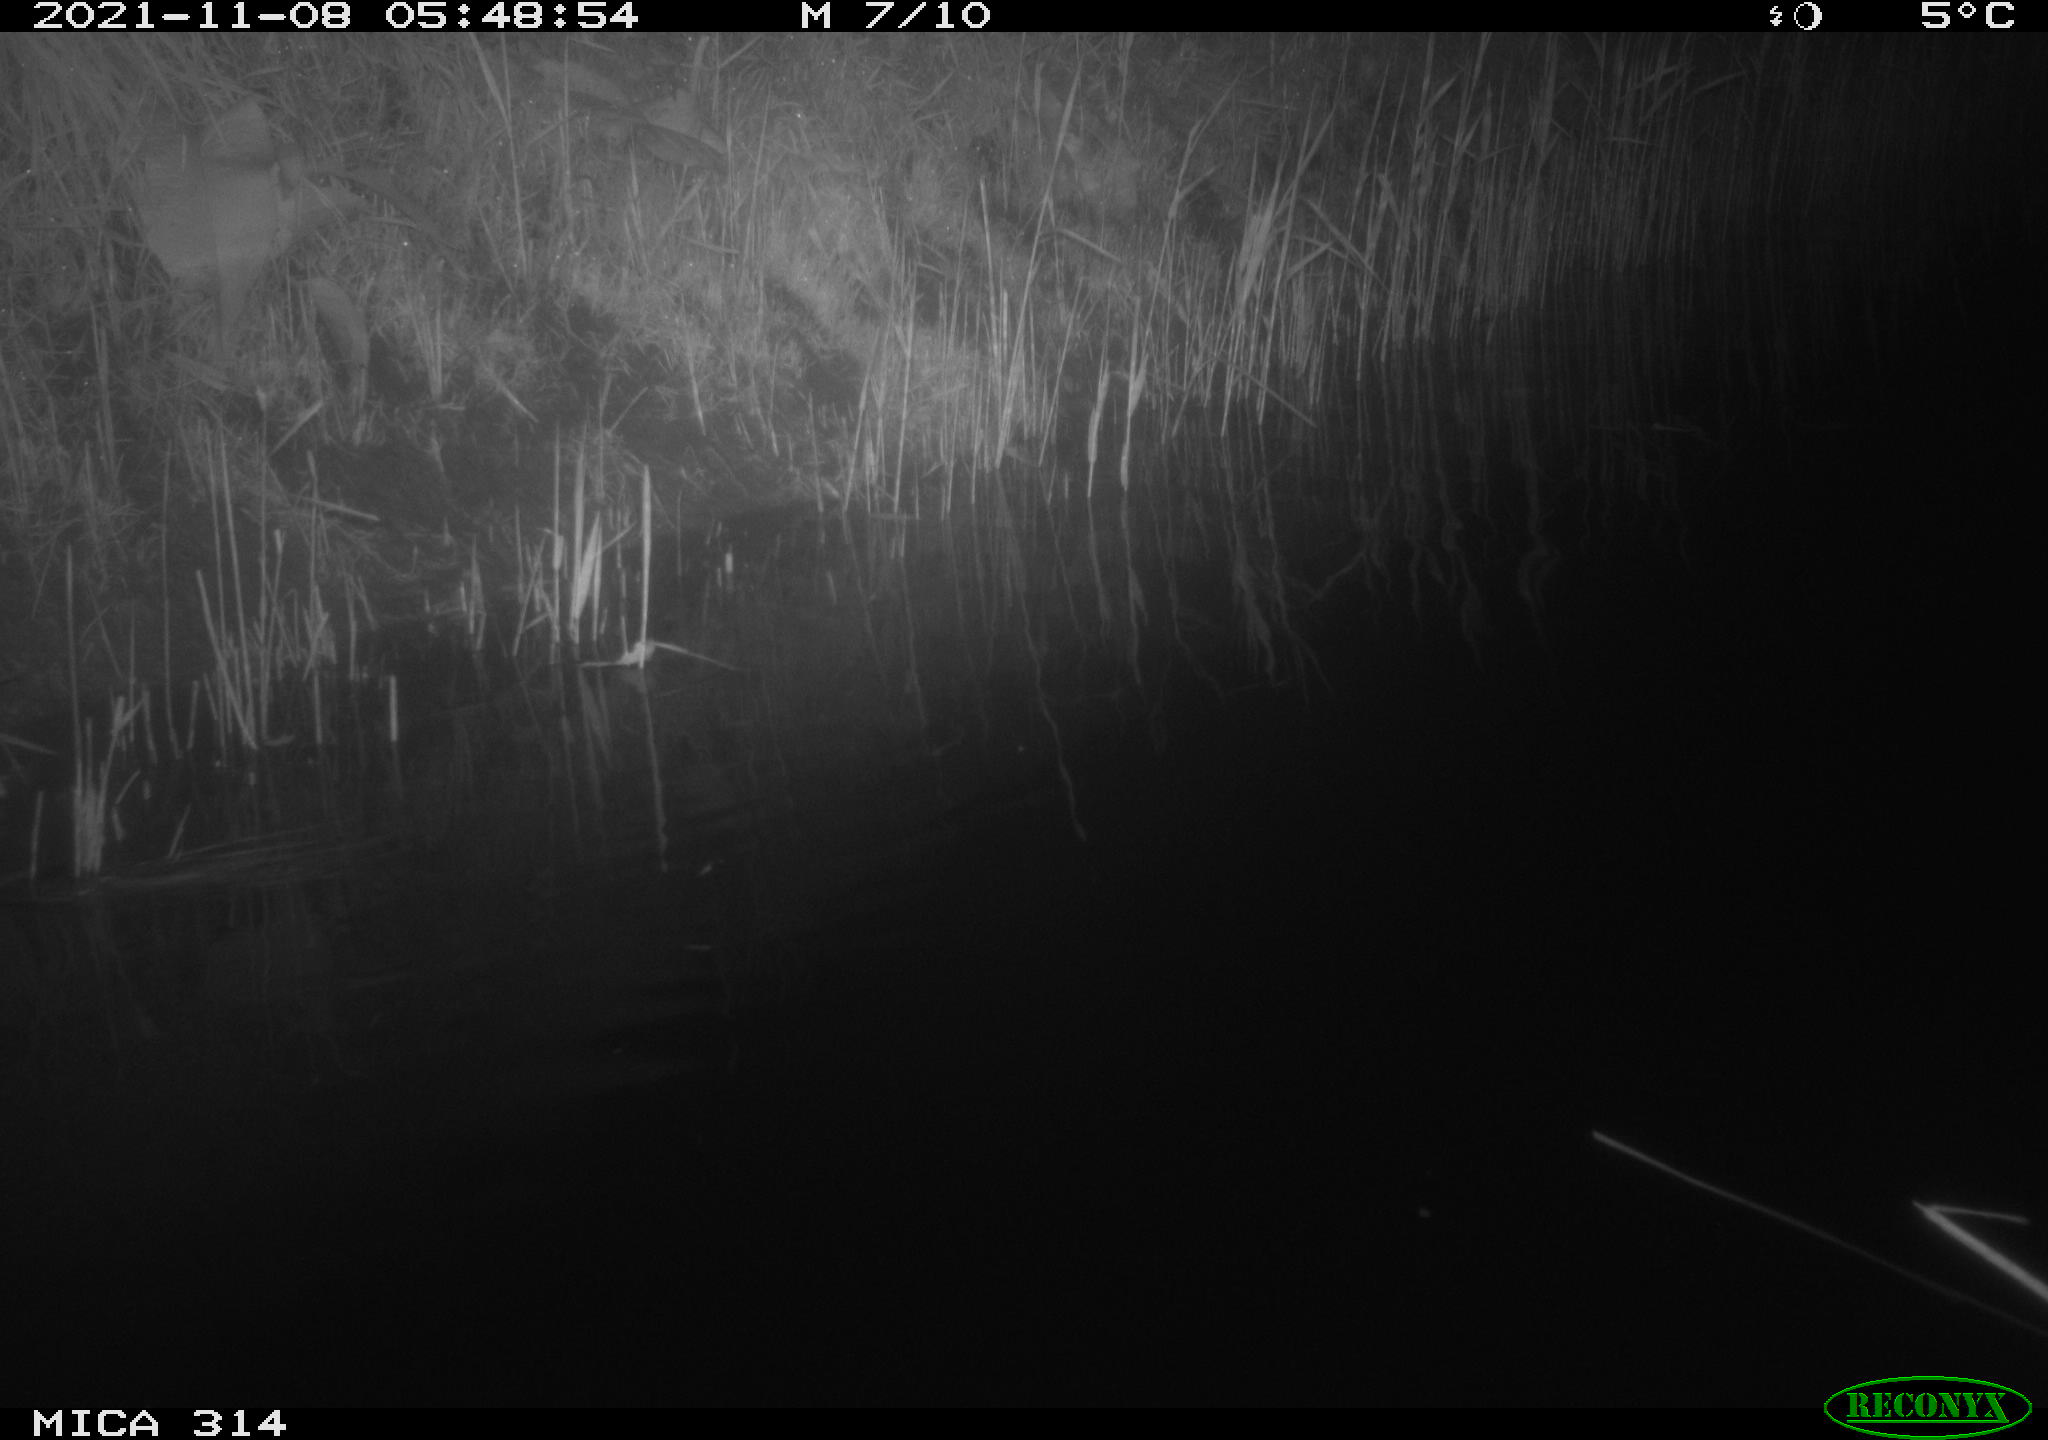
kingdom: Animalia
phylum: Chordata
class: Mammalia
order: Rodentia
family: Muridae
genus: Rattus
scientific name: Rattus norvegicus
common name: Brown rat
